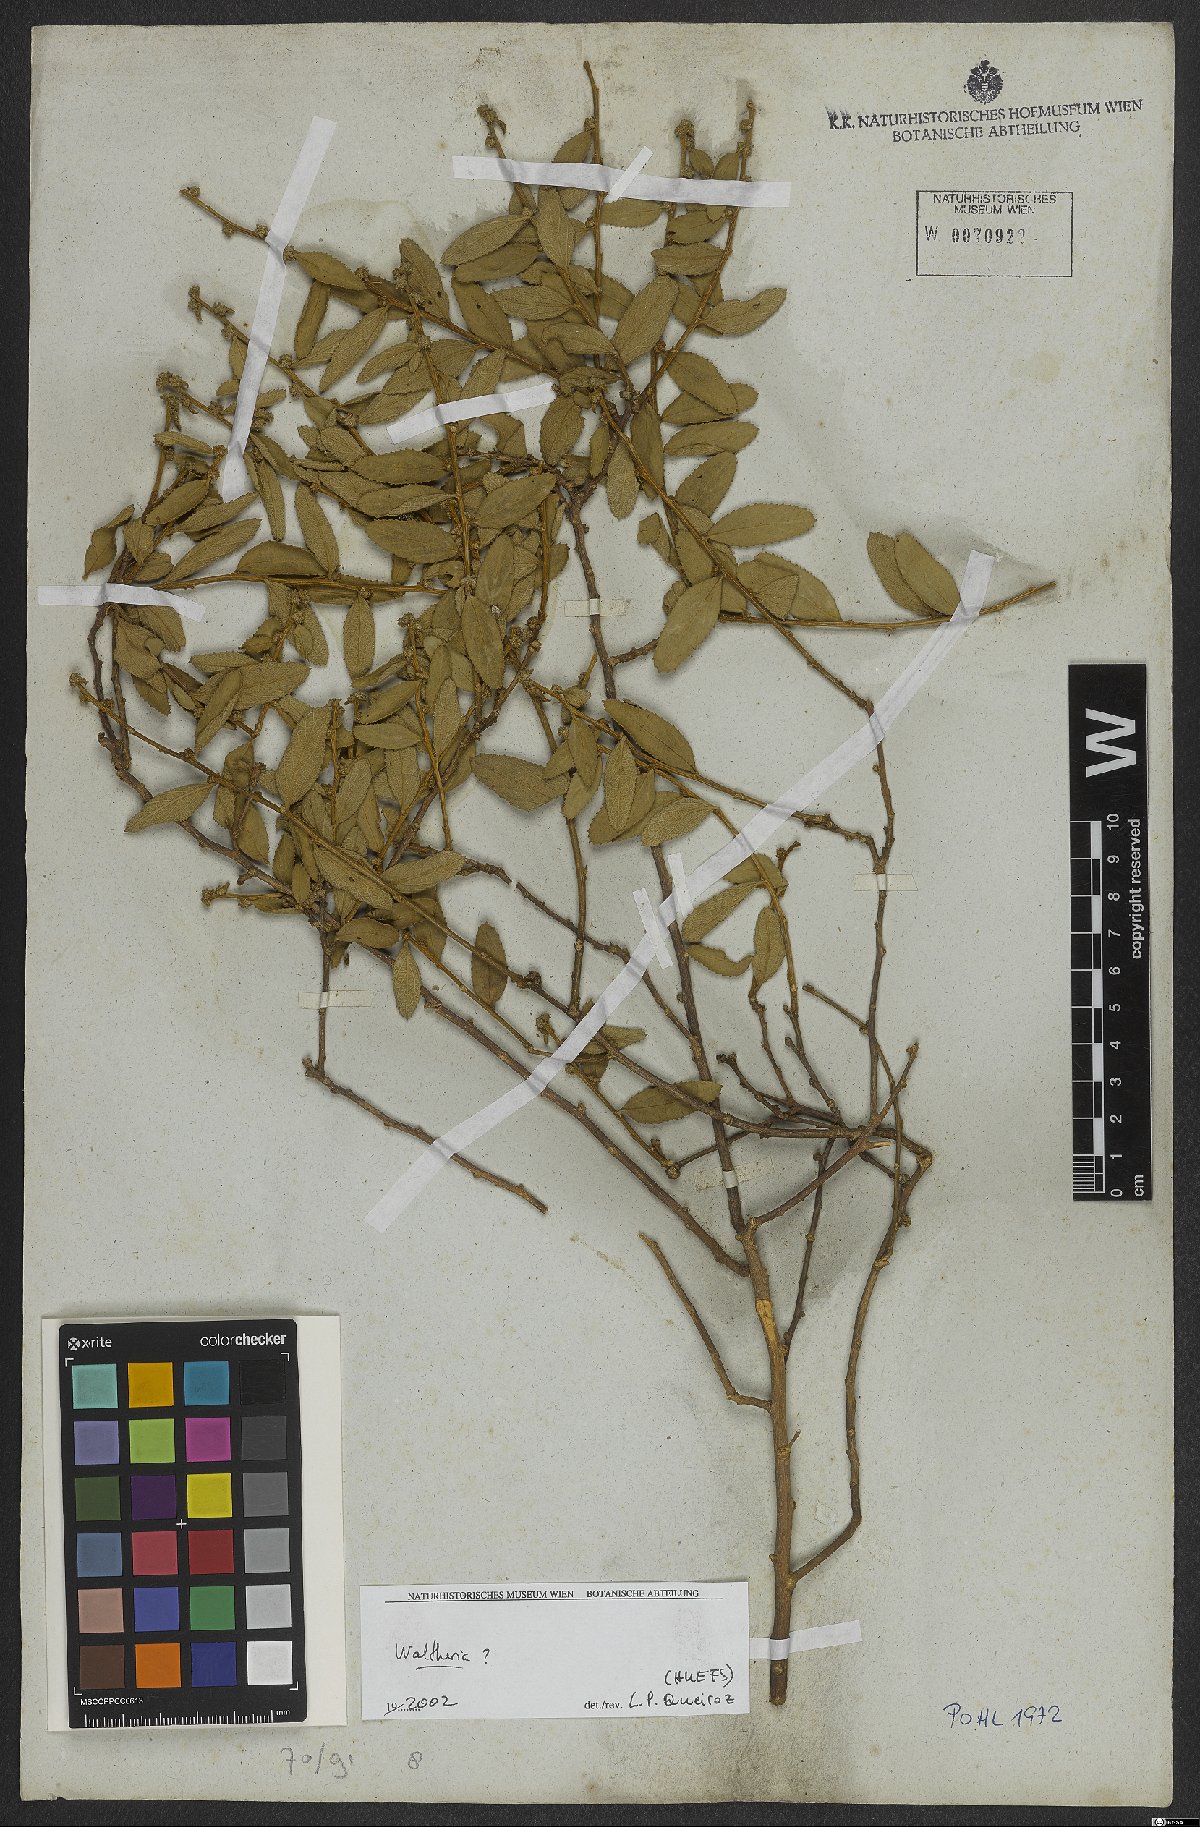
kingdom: Plantae
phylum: Tracheophyta
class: Magnoliopsida
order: Malvales
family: Malvaceae
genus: Waltheria
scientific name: Waltheria
